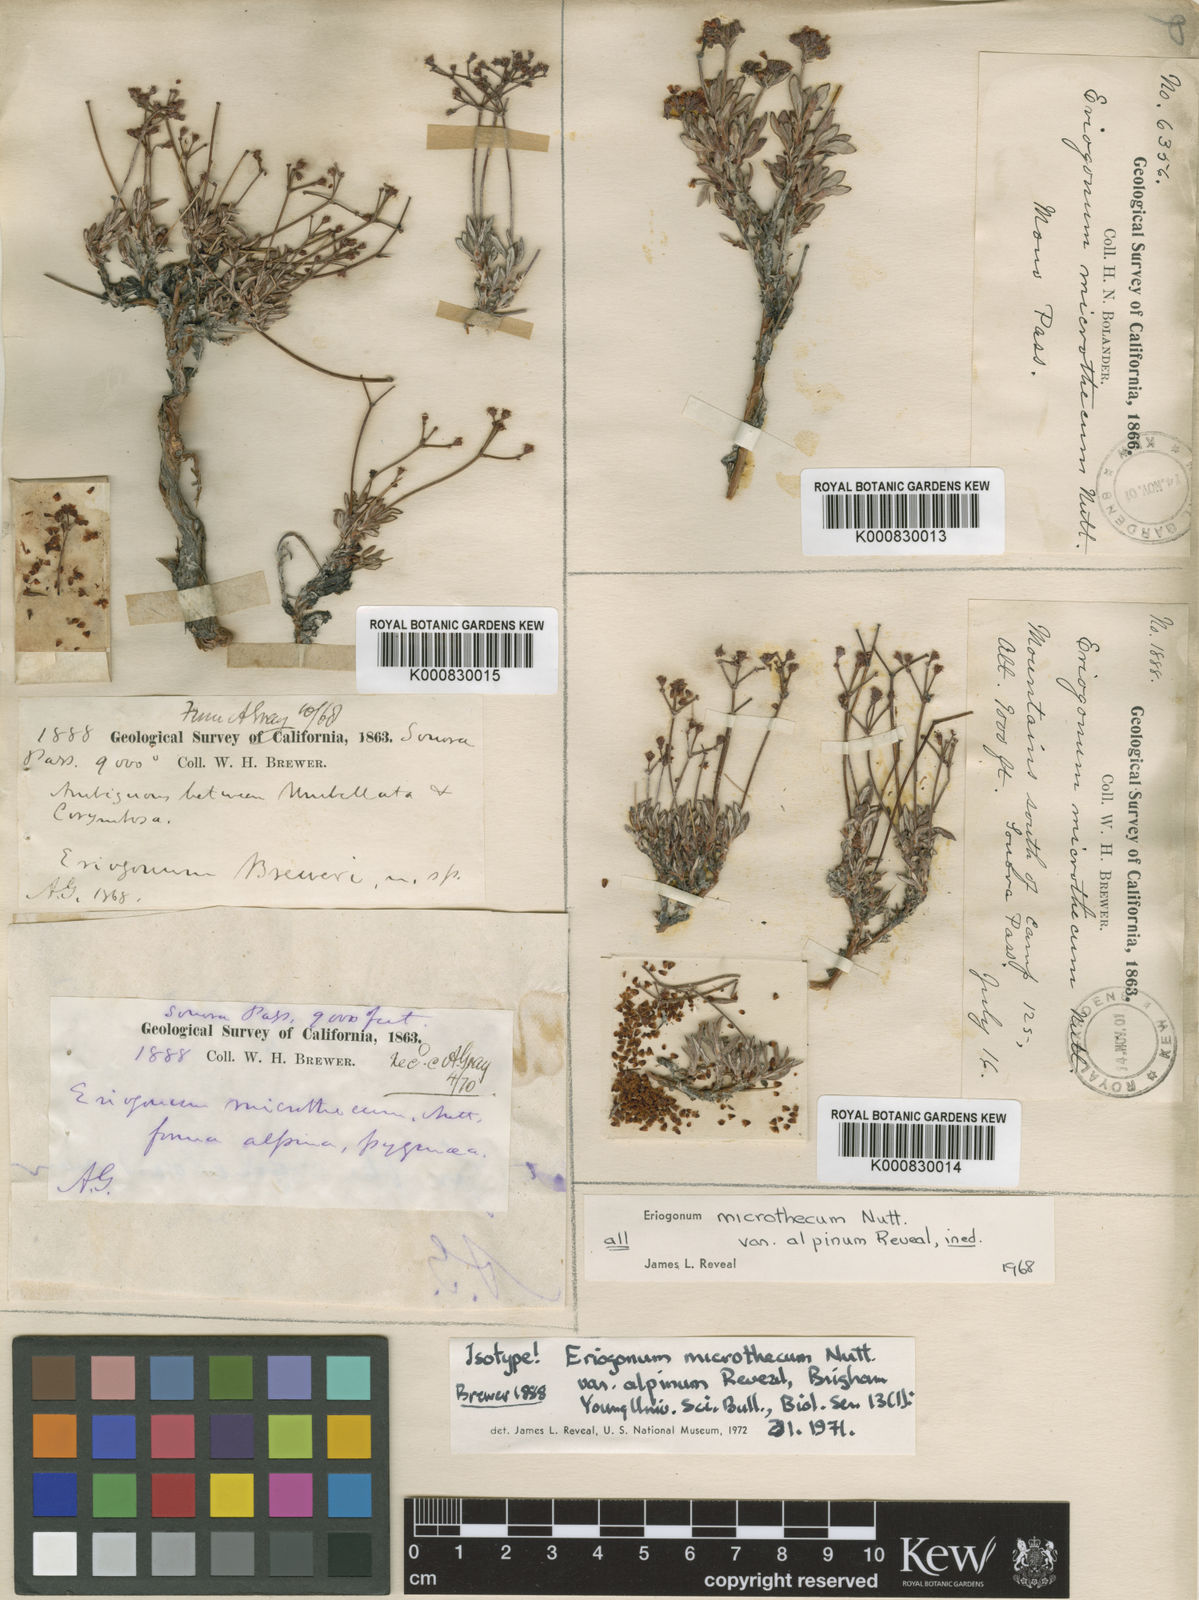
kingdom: Plantae
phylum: Tracheophyta
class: Magnoliopsida
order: Caryophyllales
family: Polygonaceae
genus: Eriogonum
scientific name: Eriogonum microtheca
